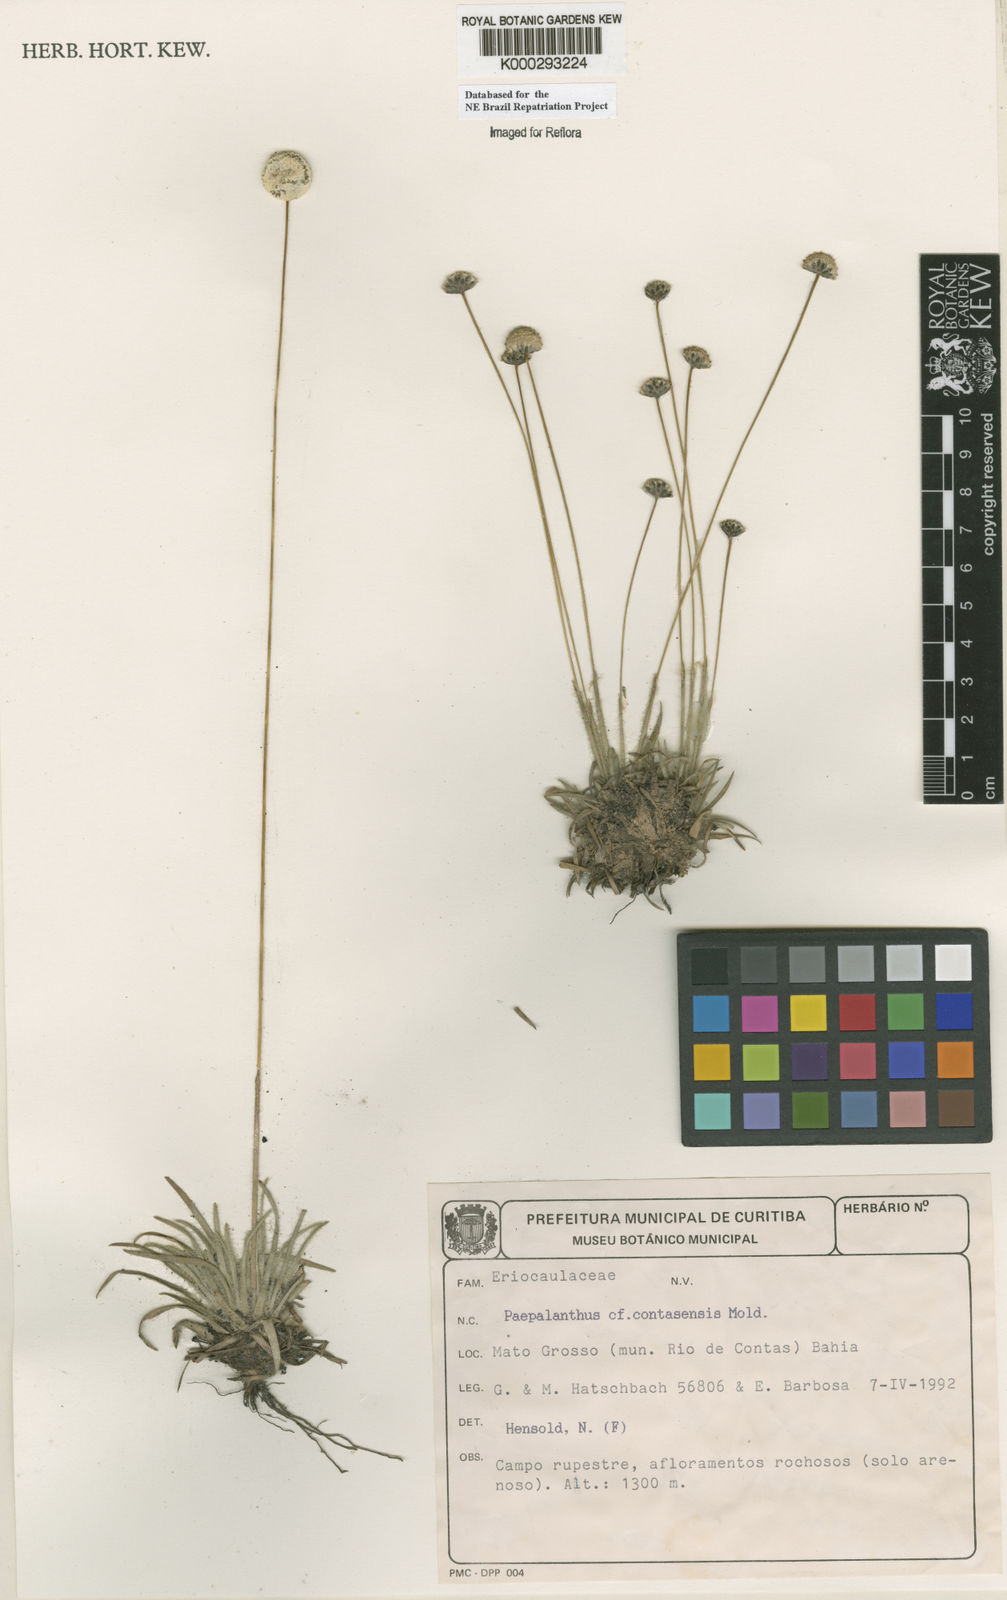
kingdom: Plantae
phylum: Tracheophyta
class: Liliopsida
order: Poales
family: Eriocaulaceae
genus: Paepalanthus
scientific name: Paepalanthus contasensis
